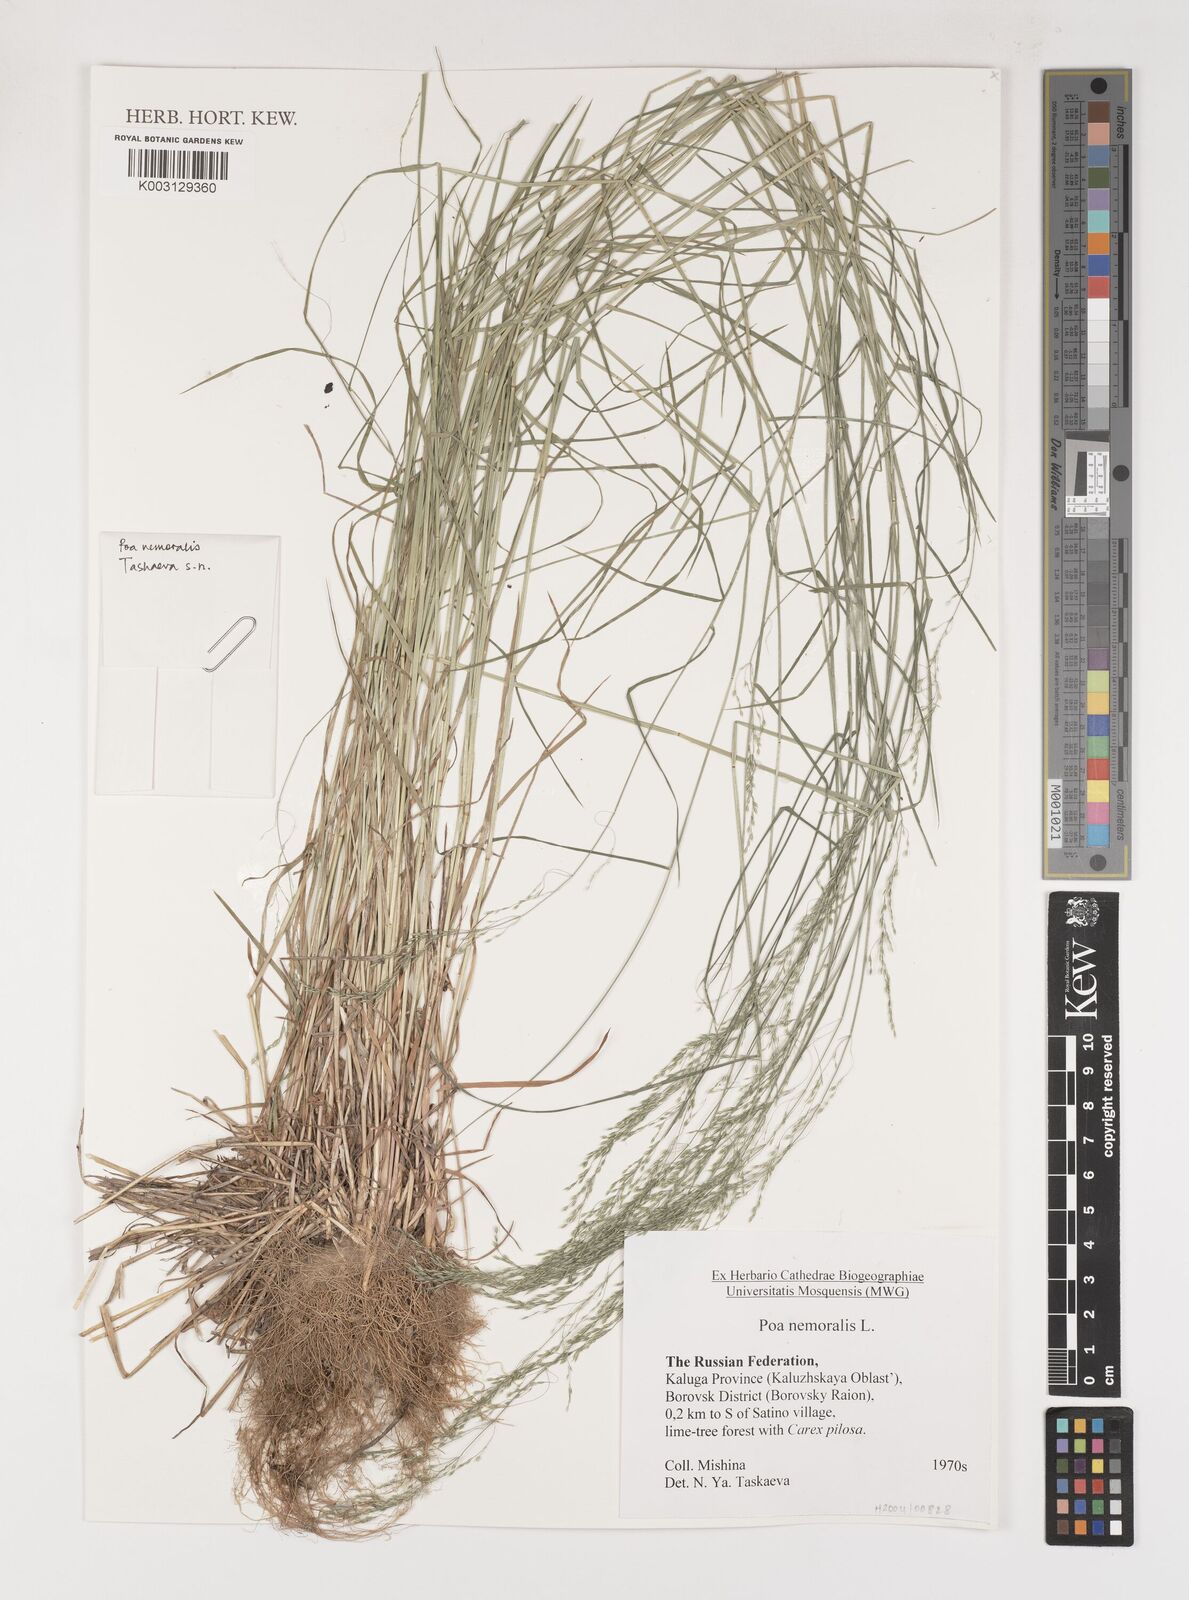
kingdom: Plantae
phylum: Tracheophyta
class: Liliopsida
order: Poales
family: Poaceae
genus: Poa
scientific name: Poa nemoralis
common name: Wood bluegrass
